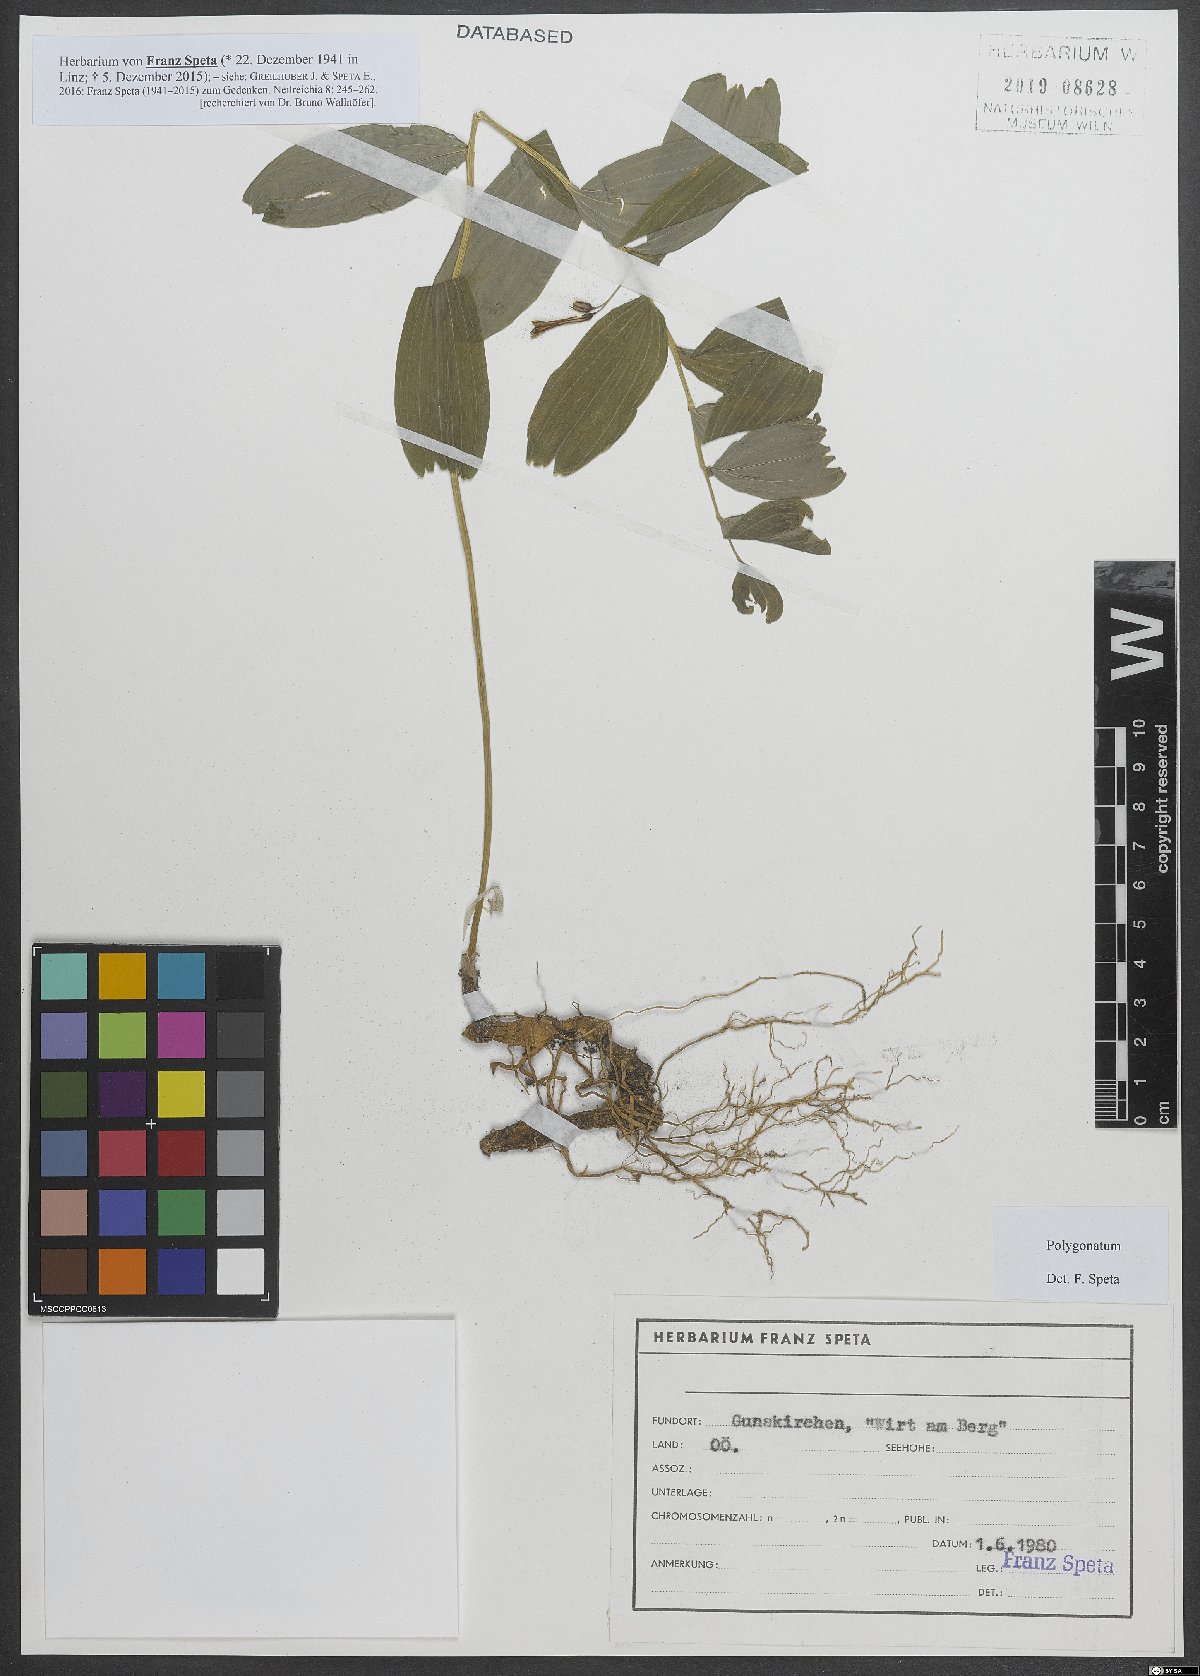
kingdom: Plantae
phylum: Tracheophyta
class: Liliopsida
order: Asparagales
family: Asparagaceae
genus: Polygonatum
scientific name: Polygonatum
